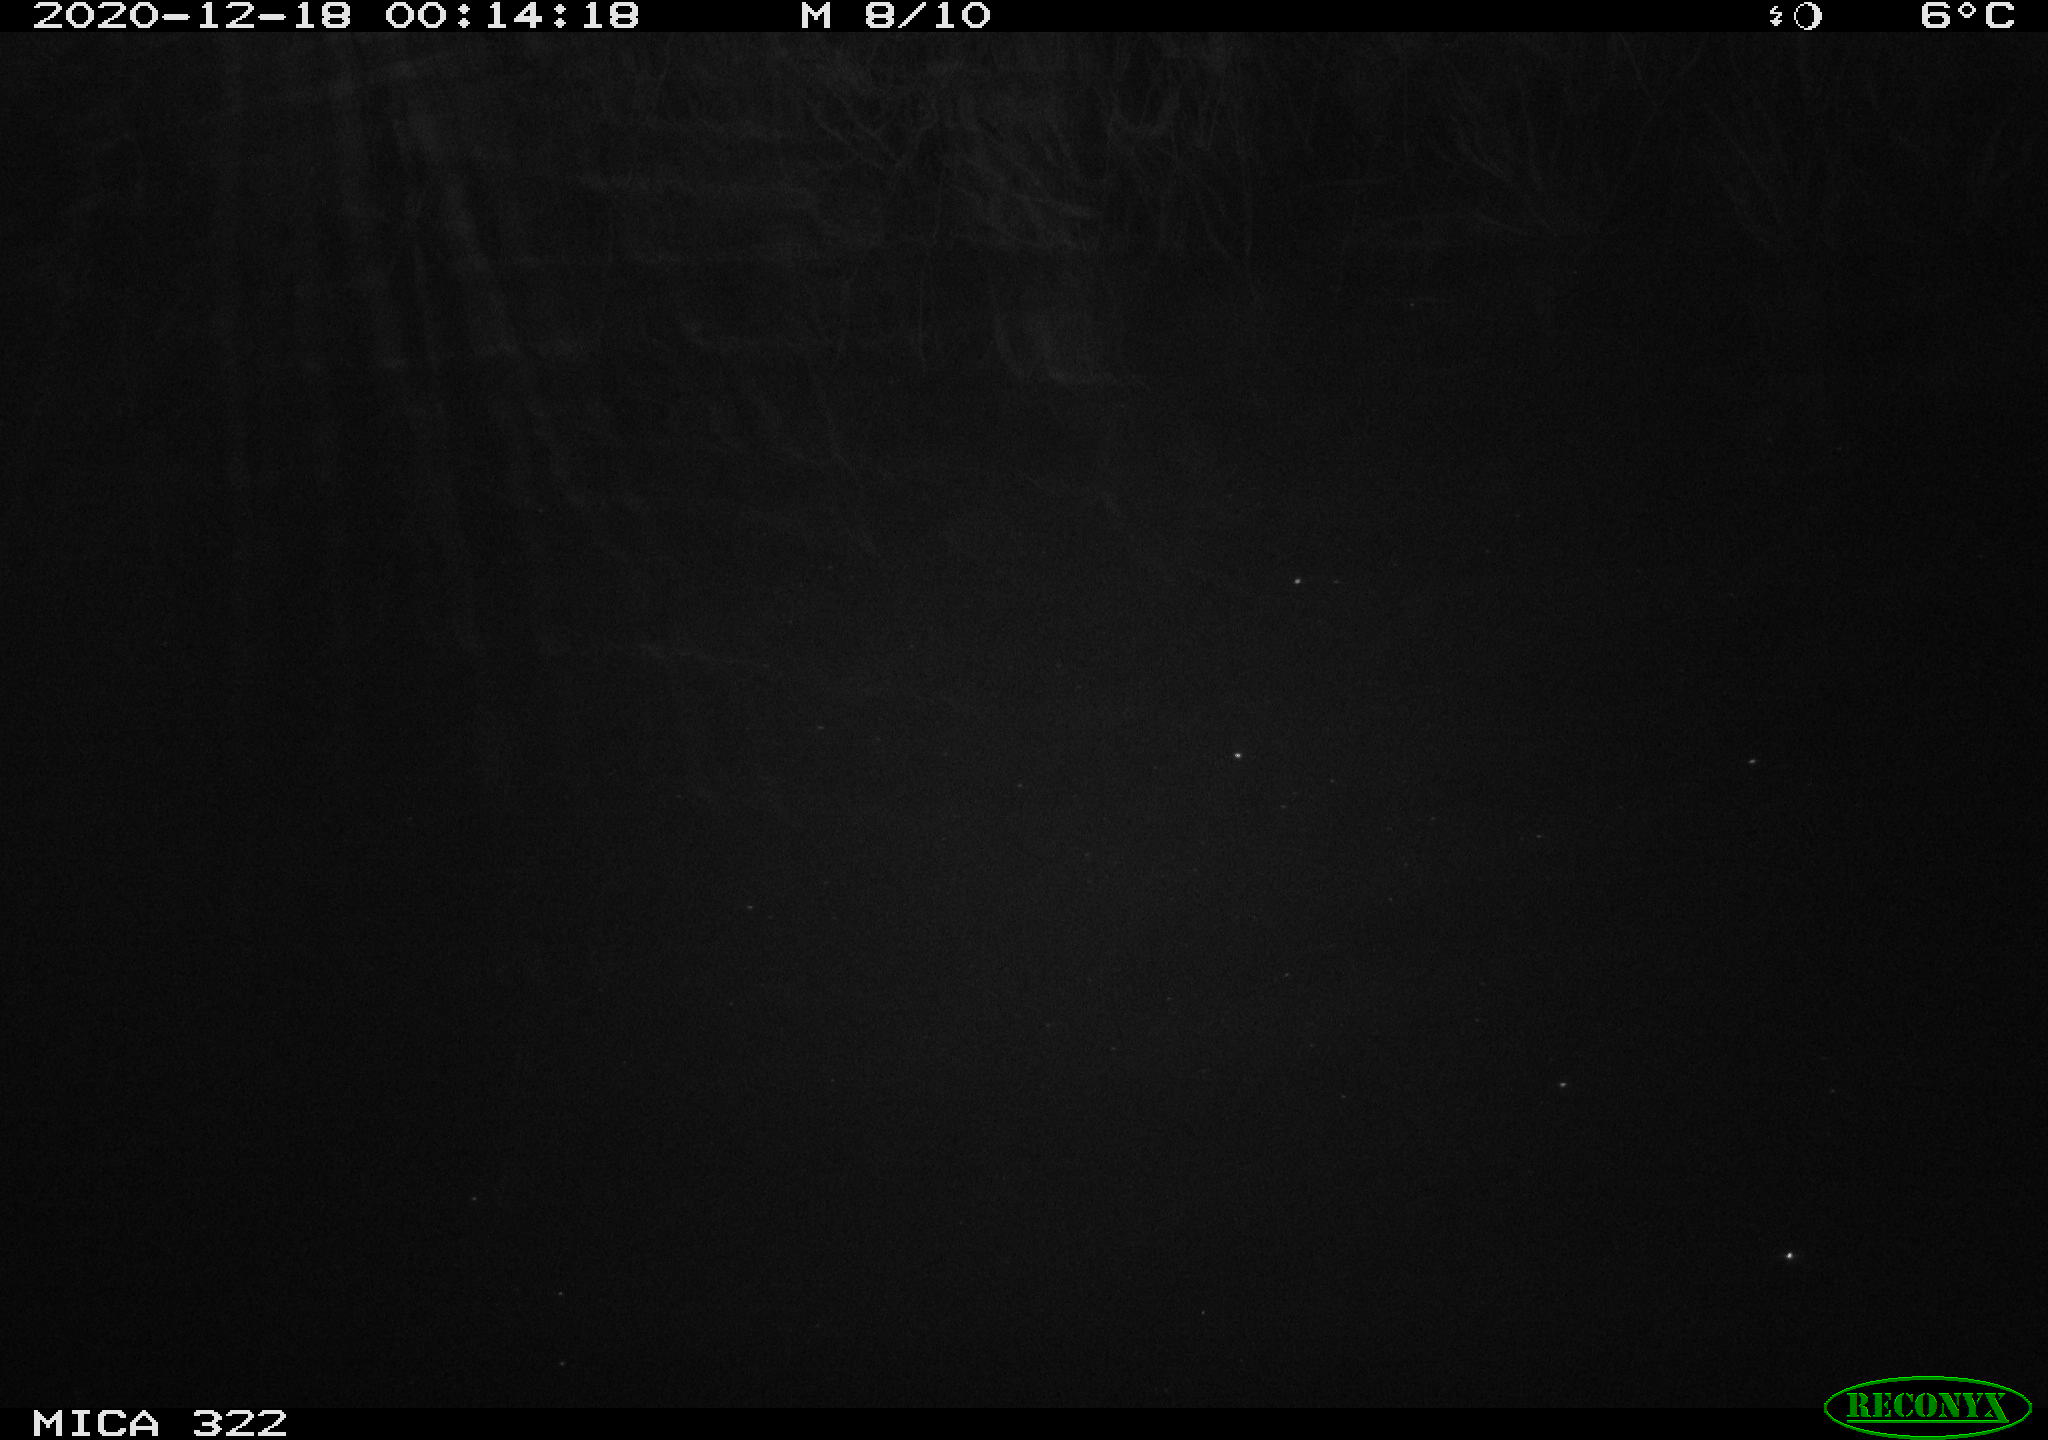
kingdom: Animalia
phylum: Chordata
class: Mammalia
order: Rodentia
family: Muridae
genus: Rattus
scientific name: Rattus norvegicus
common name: Brown rat
